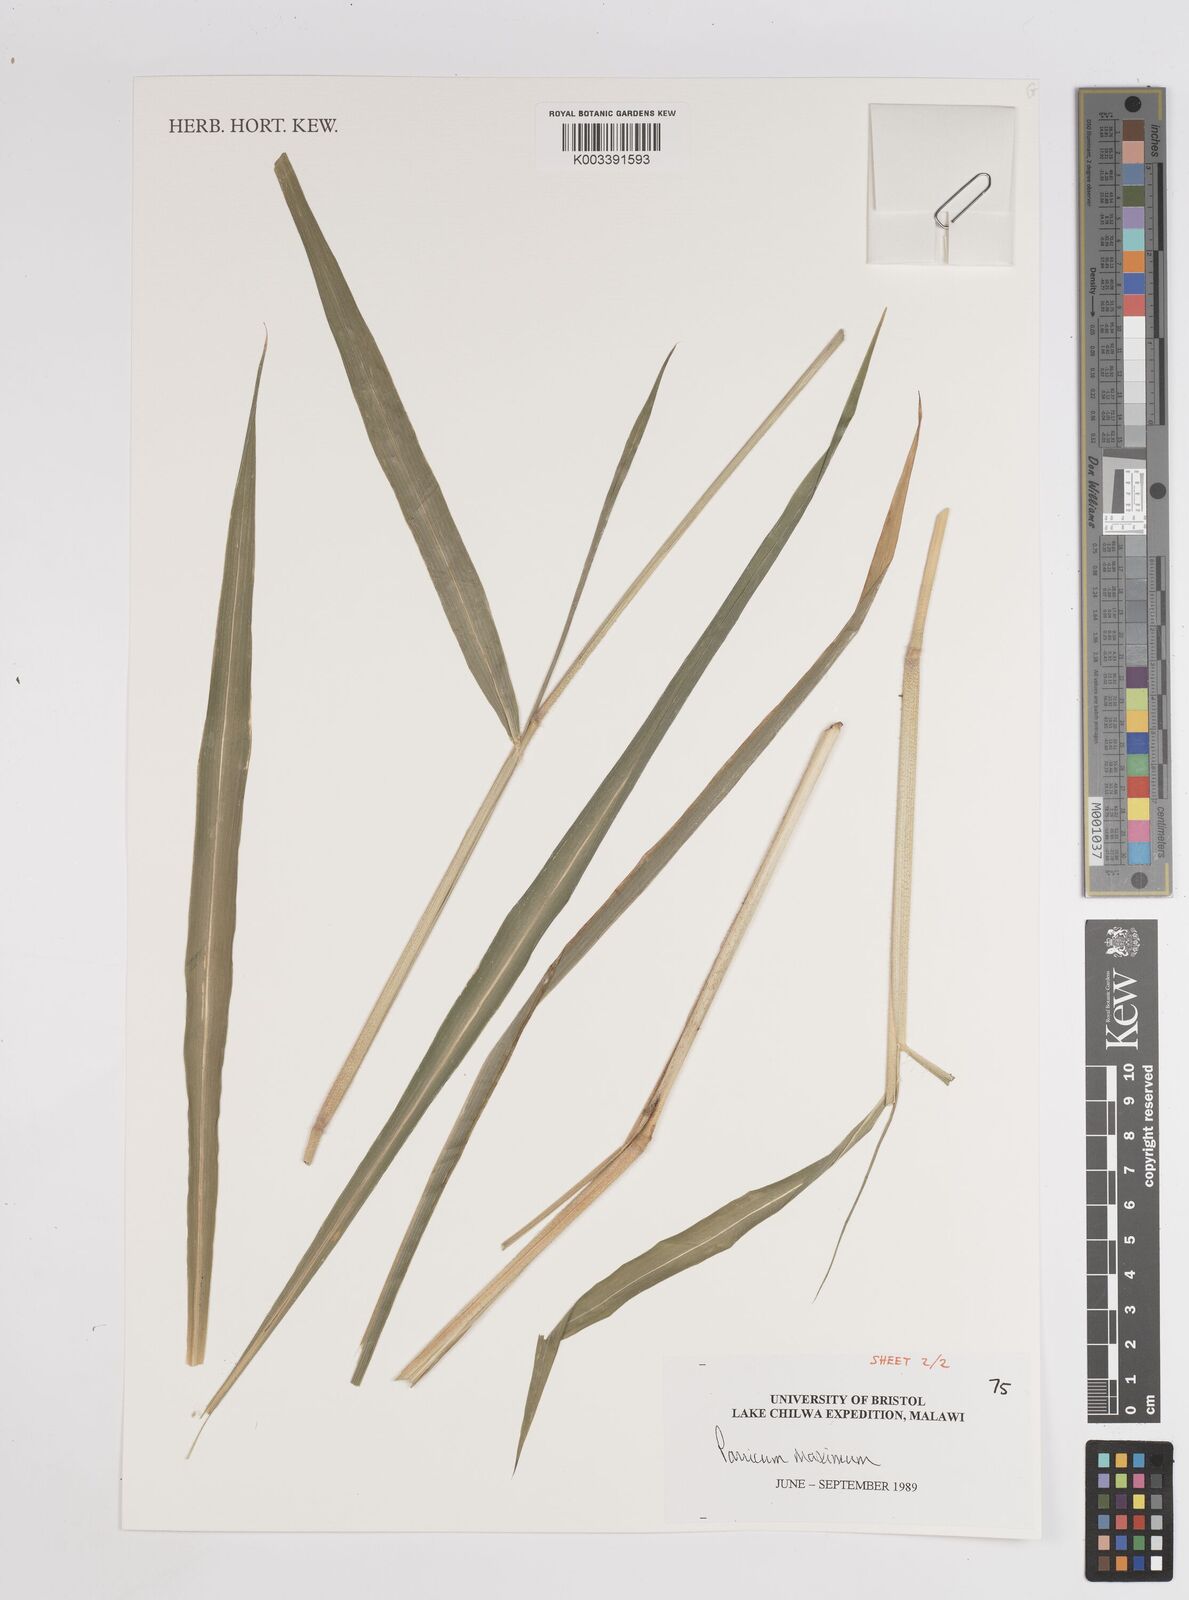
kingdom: Plantae
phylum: Tracheophyta
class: Liliopsida
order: Poales
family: Poaceae
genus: Megathyrsus
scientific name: Megathyrsus maximus
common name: Guineagrass
